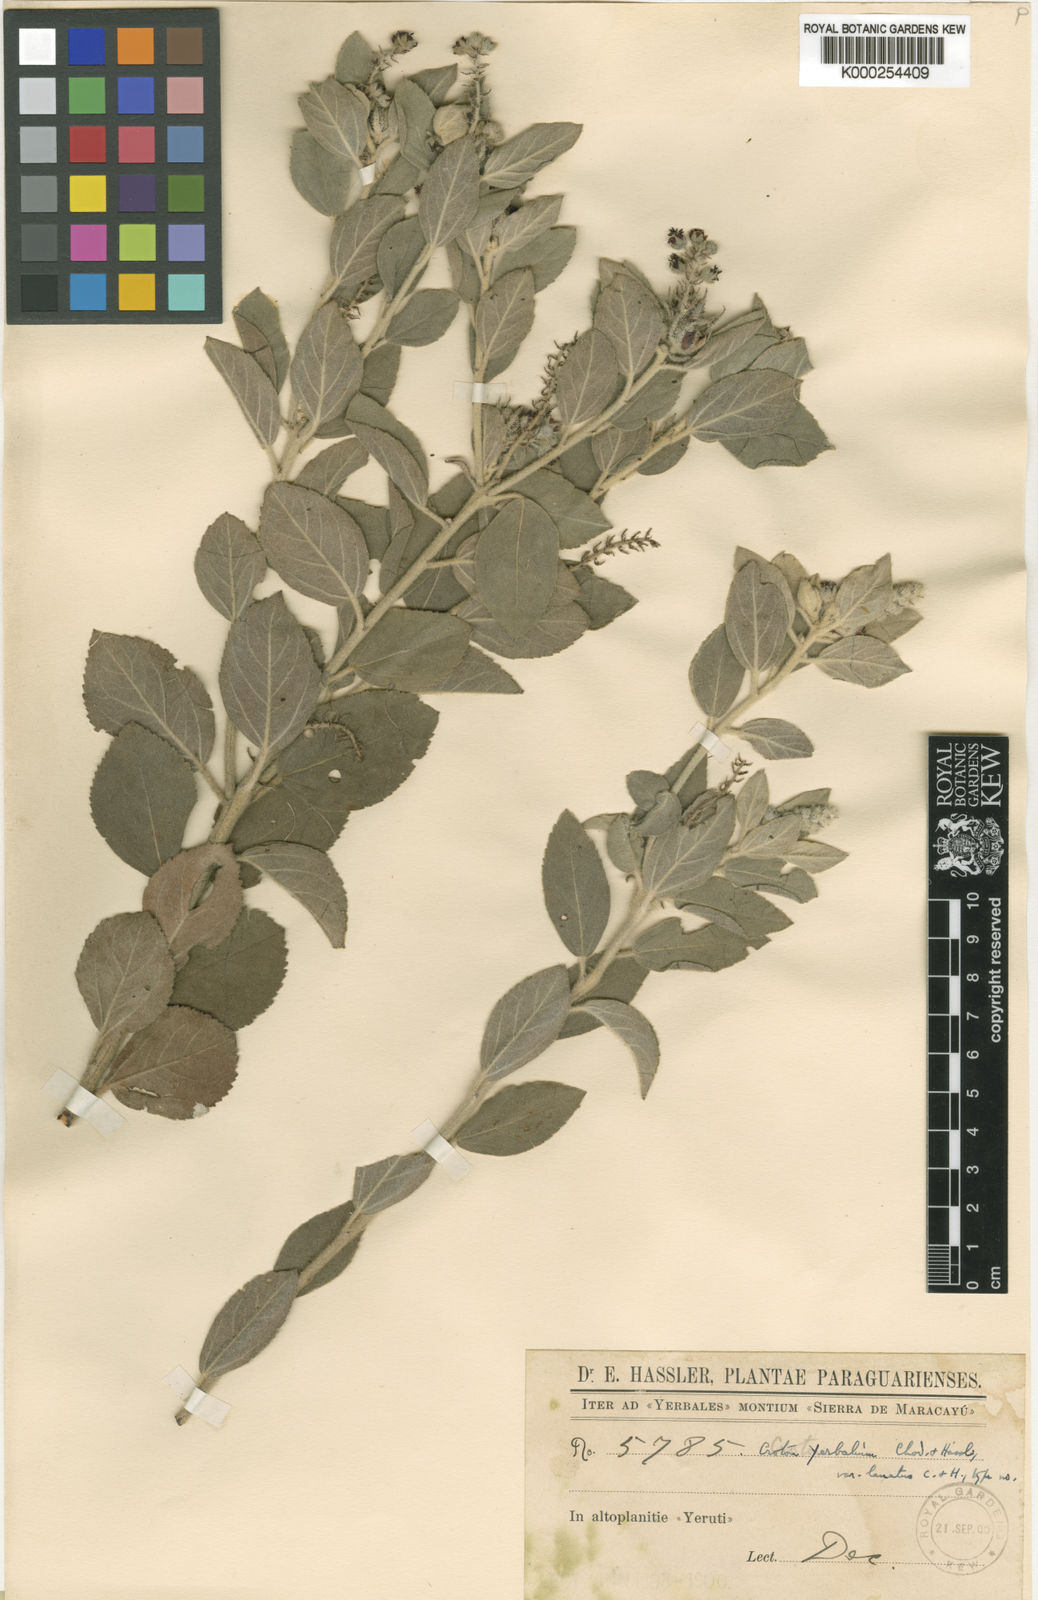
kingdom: Plantae
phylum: Tracheophyta
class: Magnoliopsida
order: Malpighiales
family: Euphorbiaceae
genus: Croton
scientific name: Croton yerbalium
